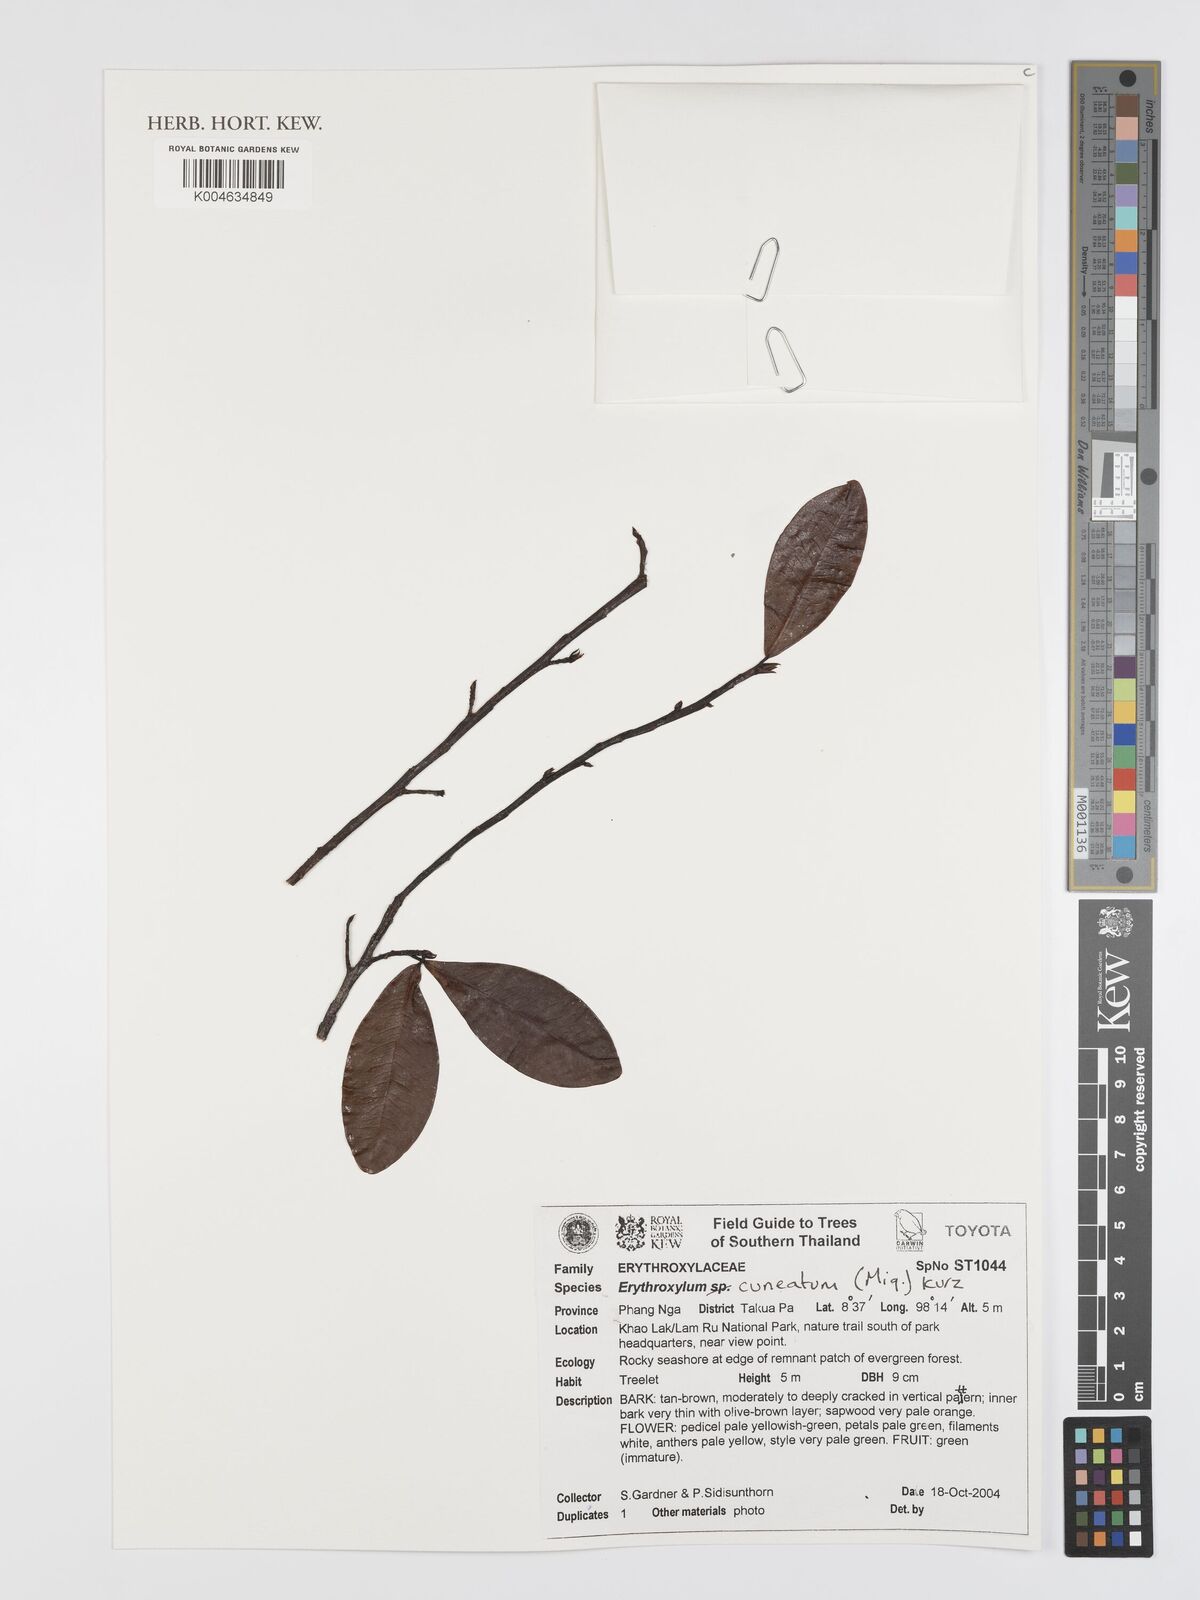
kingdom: Plantae
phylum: Tracheophyta
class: Magnoliopsida
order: Malpighiales
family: Erythroxylaceae
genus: Erythroxylum
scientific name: Erythroxylum cuneatum
